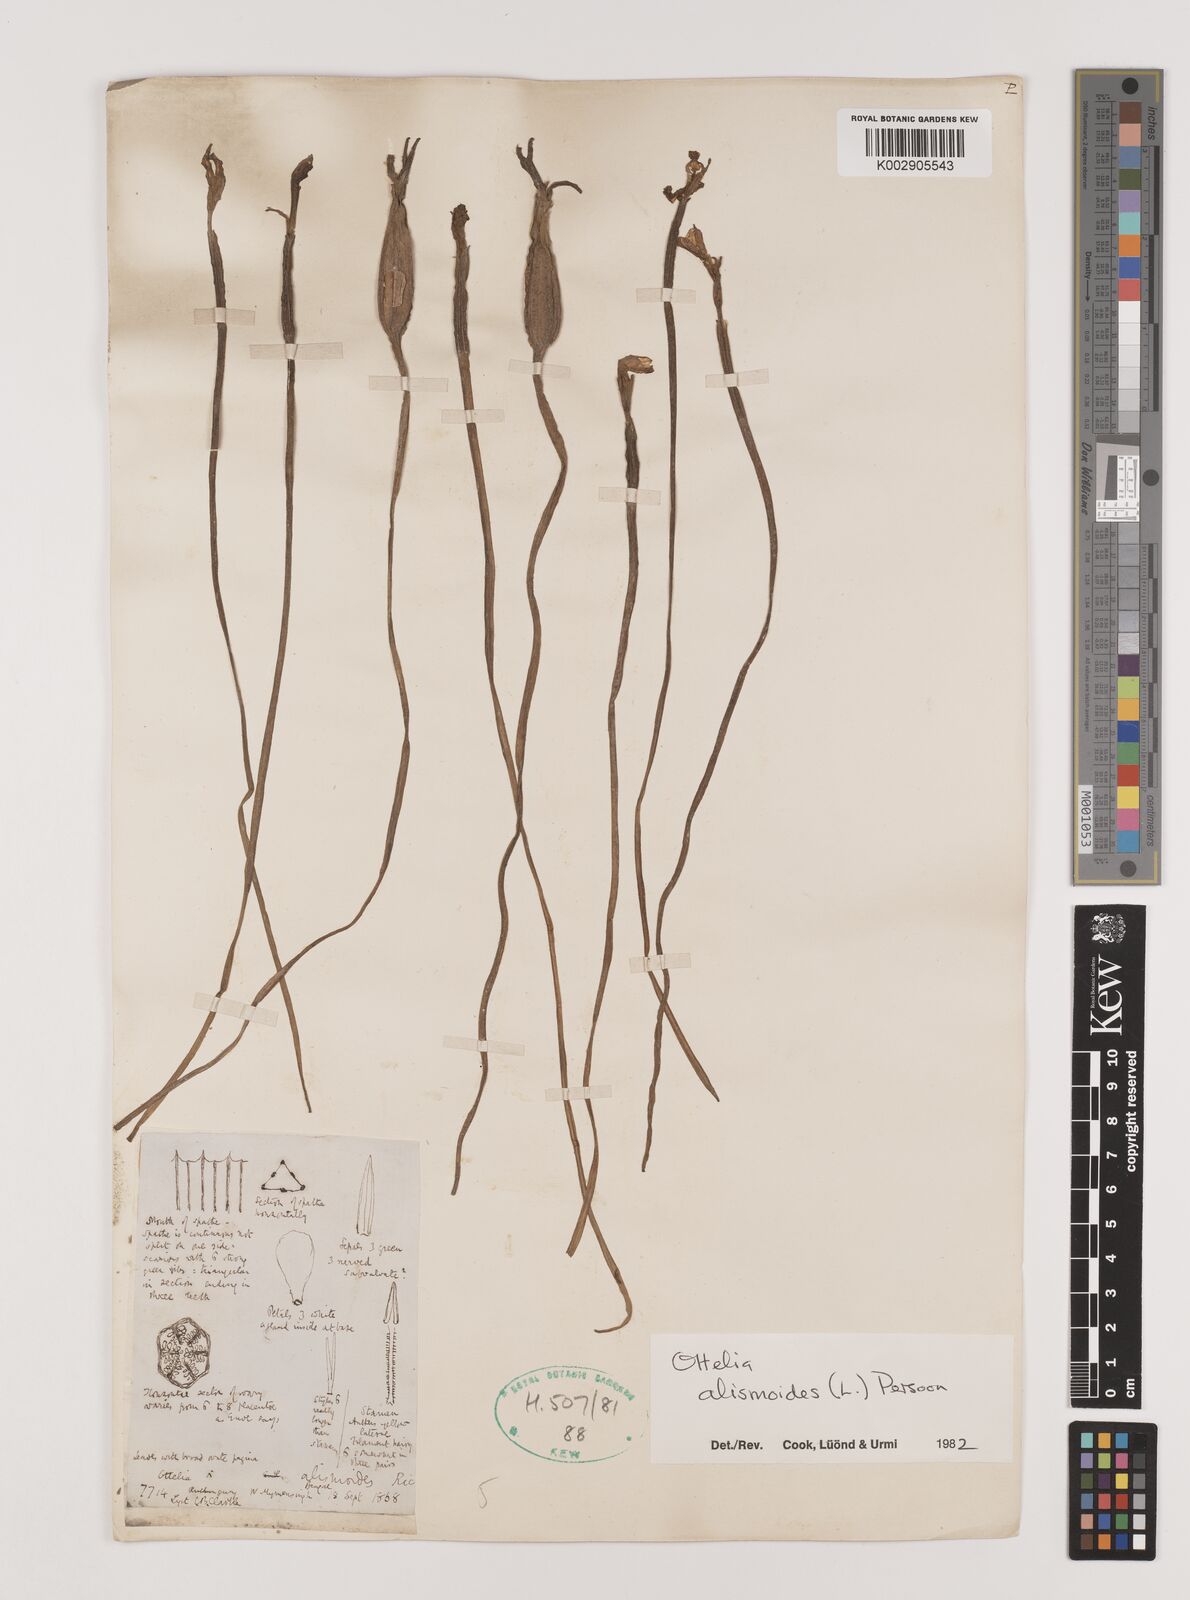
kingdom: Plantae
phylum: Tracheophyta
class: Liliopsida
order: Alismatales
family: Hydrocharitaceae
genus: Ottelia
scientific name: Ottelia alismoides
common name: Duck-lettuce
